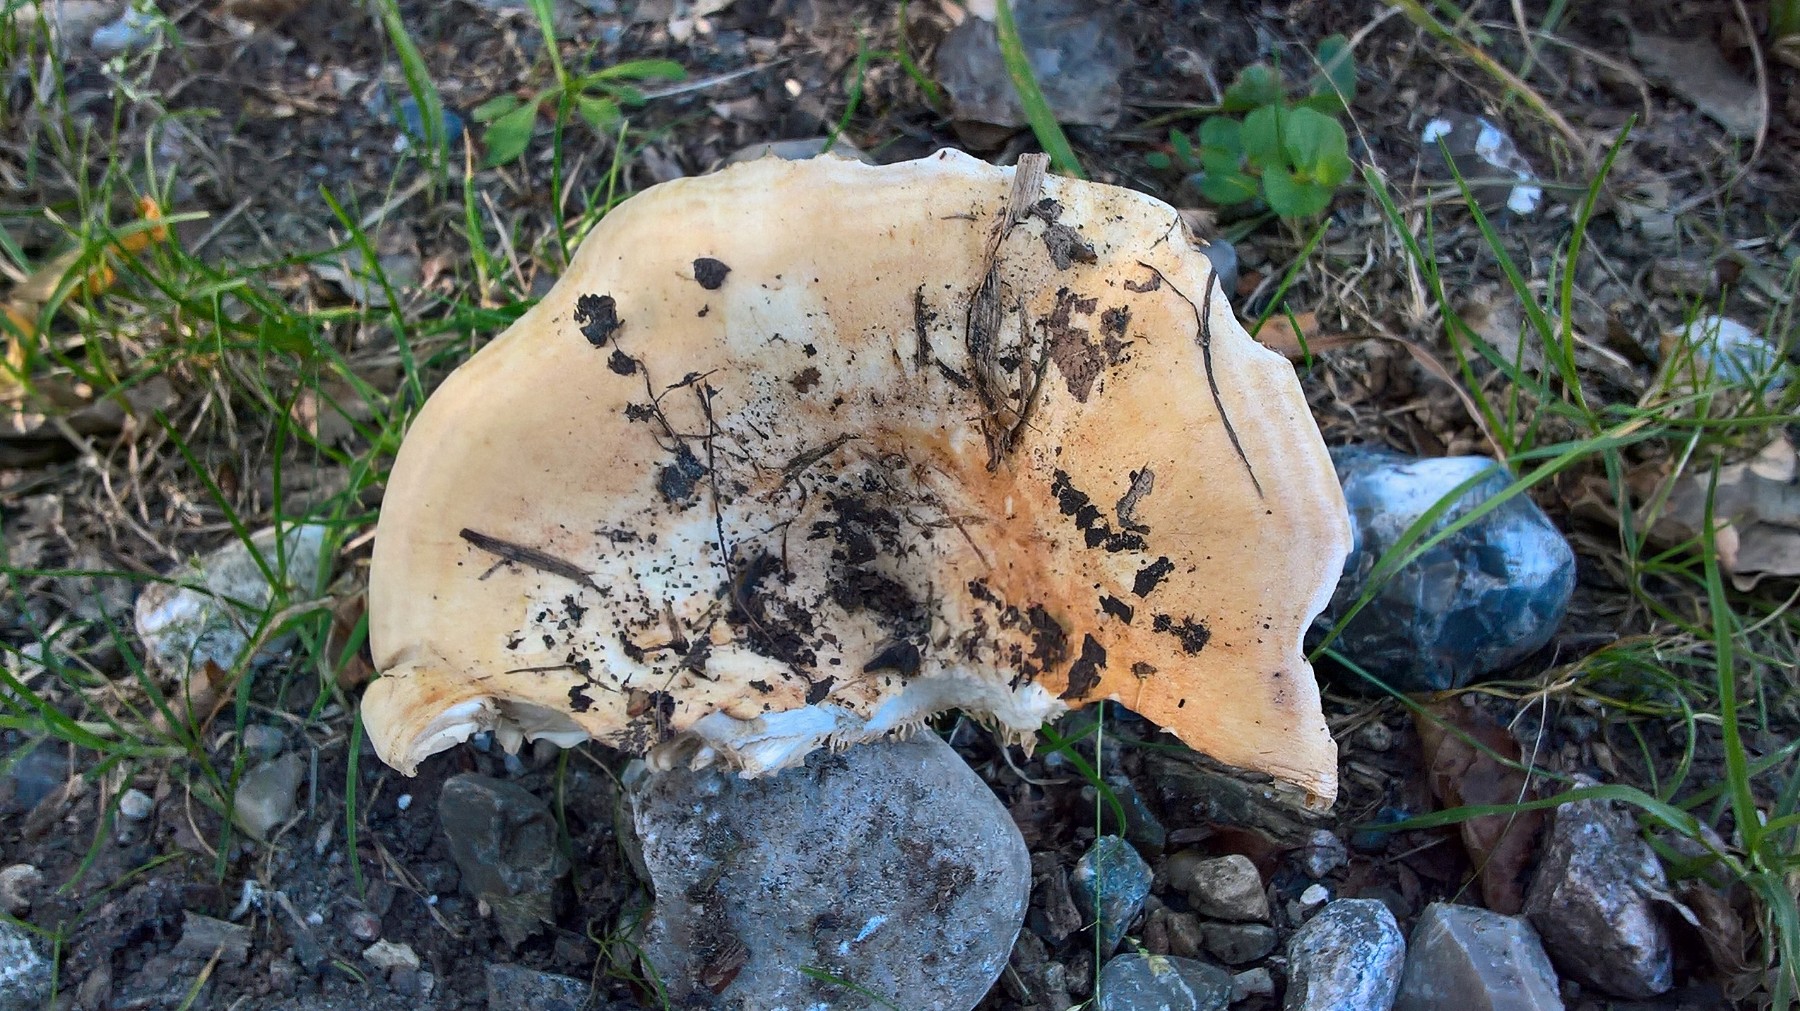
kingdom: Fungi
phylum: Basidiomycota
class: Agaricomycetes
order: Russulales
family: Russulaceae
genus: Lactarius
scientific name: Lactarius evosmus
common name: bæltet mælkehat
